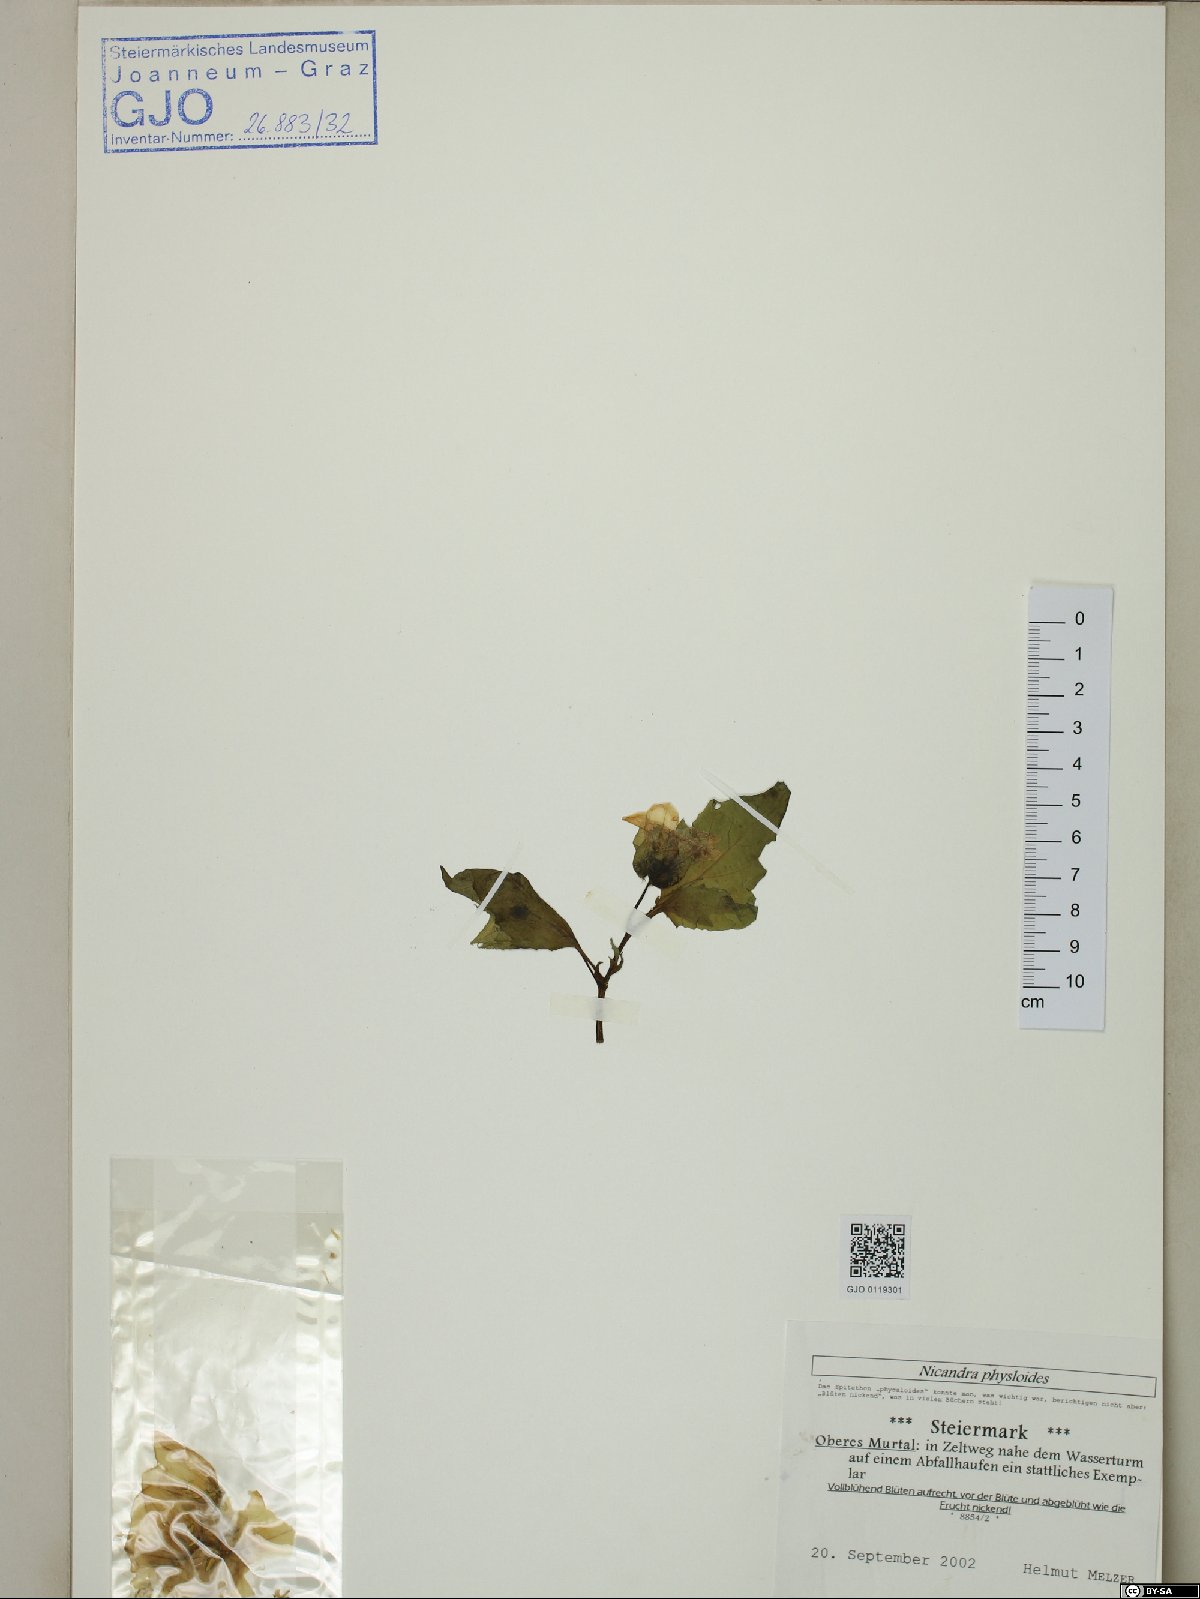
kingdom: Plantae
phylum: Tracheophyta
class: Magnoliopsida
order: Solanales
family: Solanaceae
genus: Nicandra
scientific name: Nicandra physalodes
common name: Apple-of-peru
